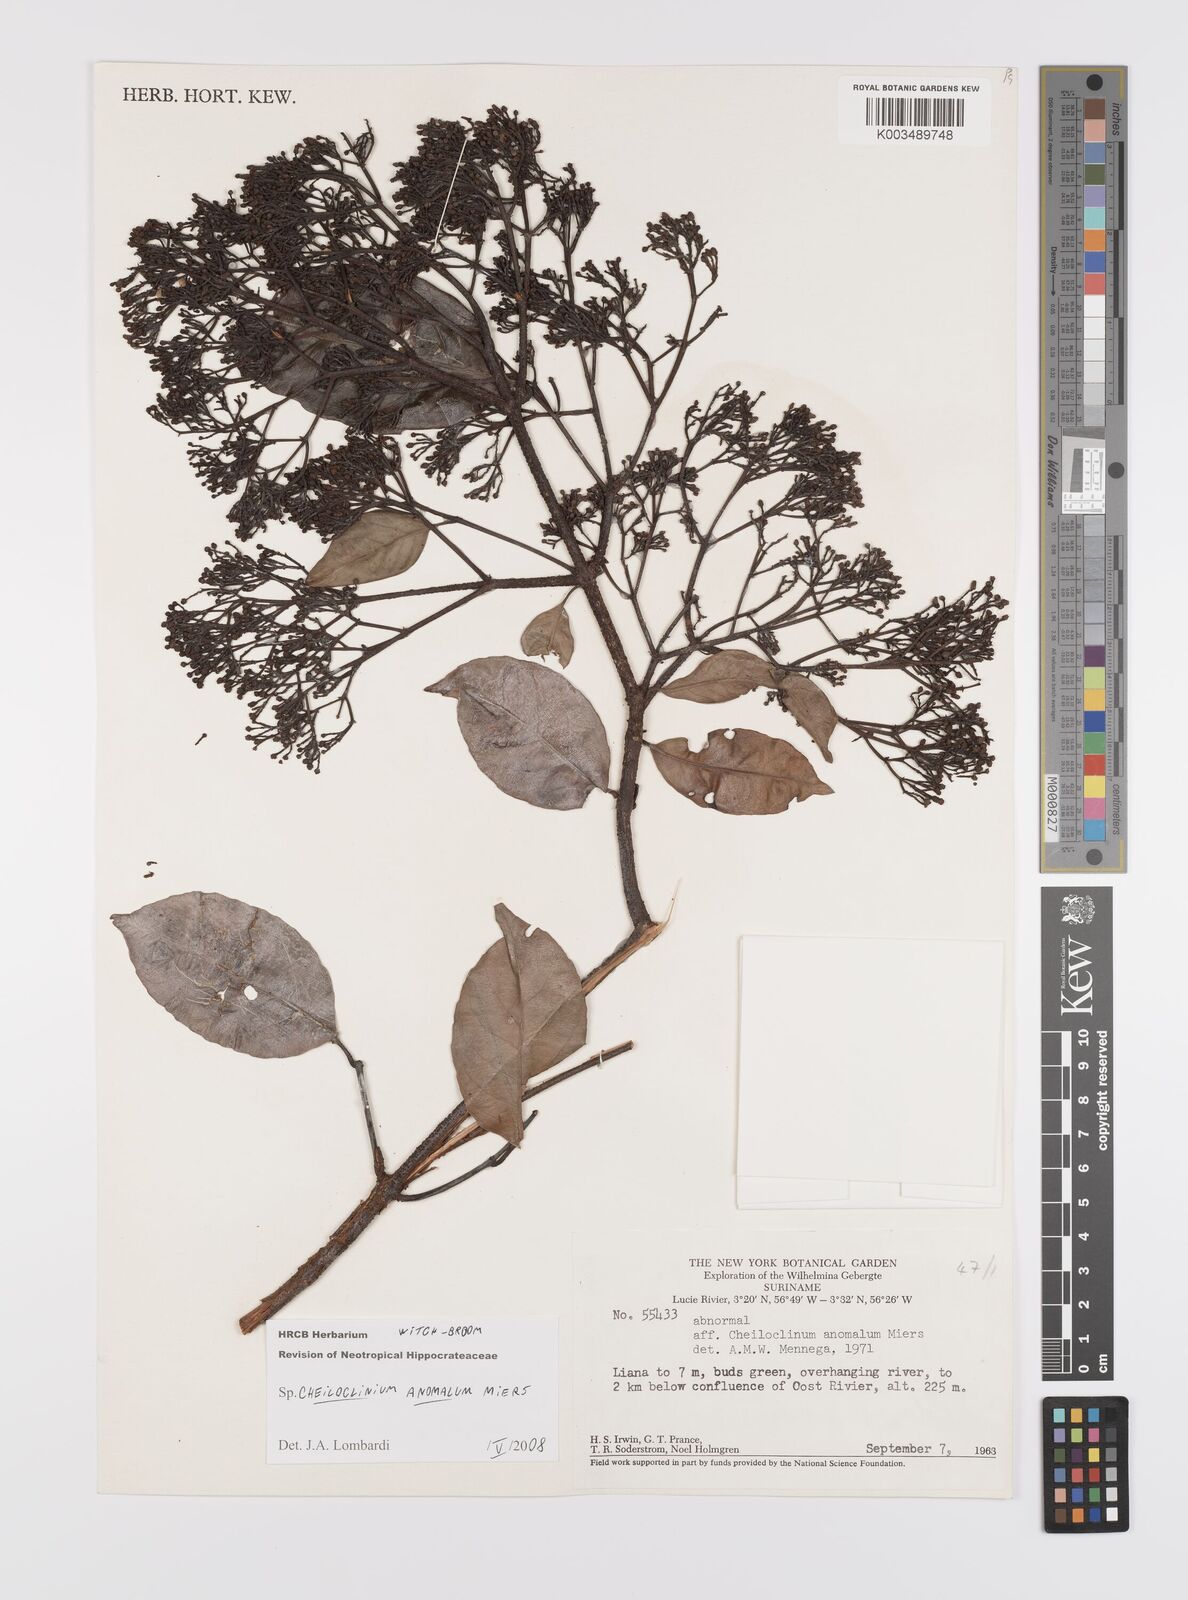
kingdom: Plantae
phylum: Tracheophyta
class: Magnoliopsida
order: Celastrales
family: Celastraceae
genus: Cheiloclinium
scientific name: Cheiloclinium anomalum
